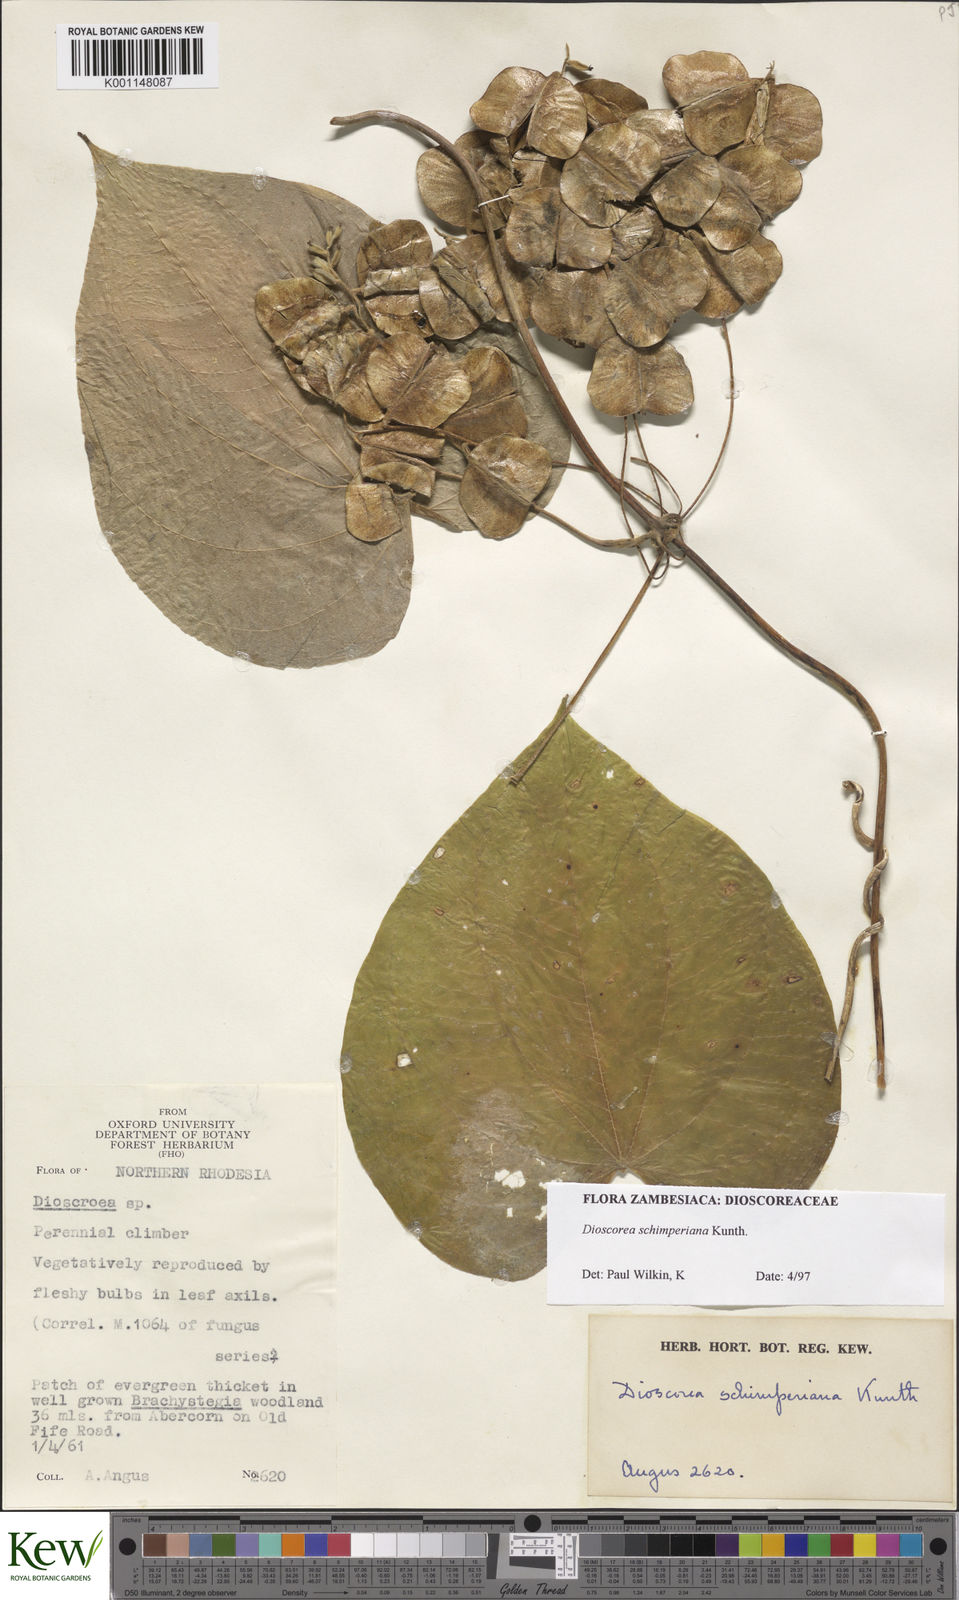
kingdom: Plantae
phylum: Tracheophyta
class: Liliopsida
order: Dioscoreales
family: Dioscoreaceae
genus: Dioscorea
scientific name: Dioscorea schimperiana
